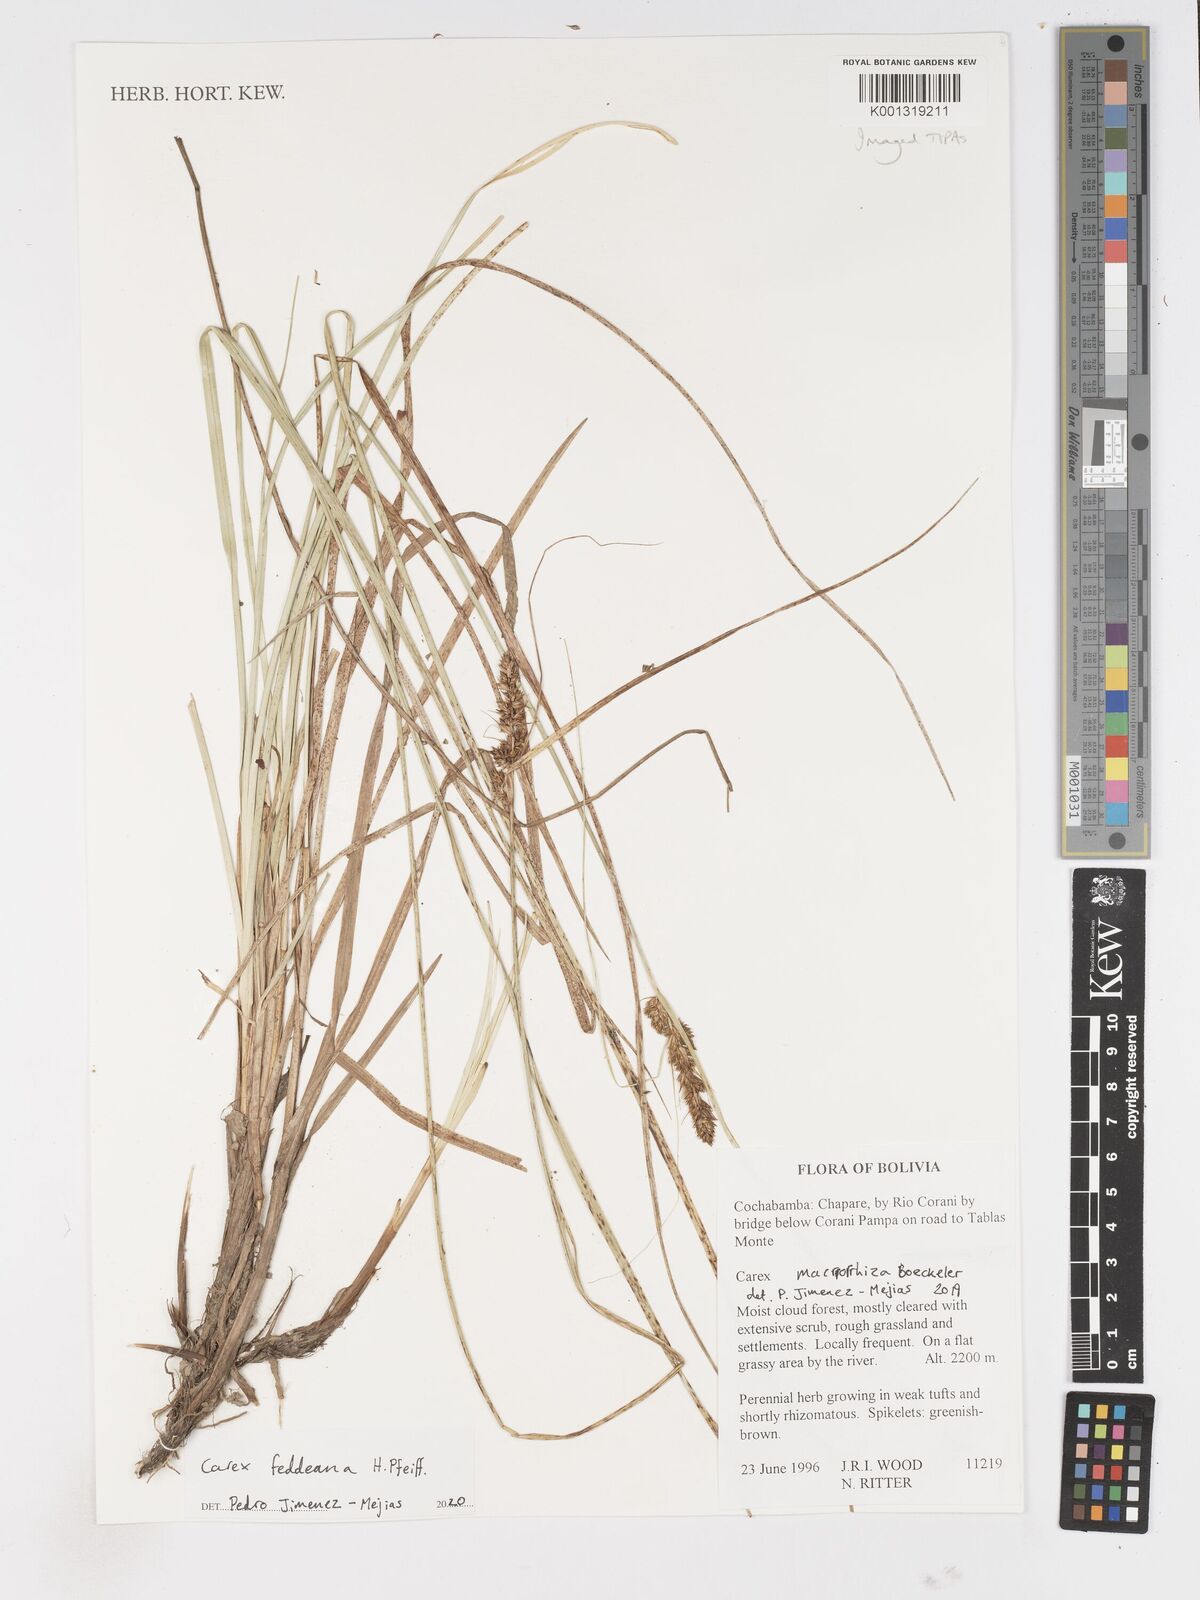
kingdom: Plantae
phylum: Tracheophyta
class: Liliopsida
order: Poales
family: Cyperaceae
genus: Carex
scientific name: Carex feddeana
